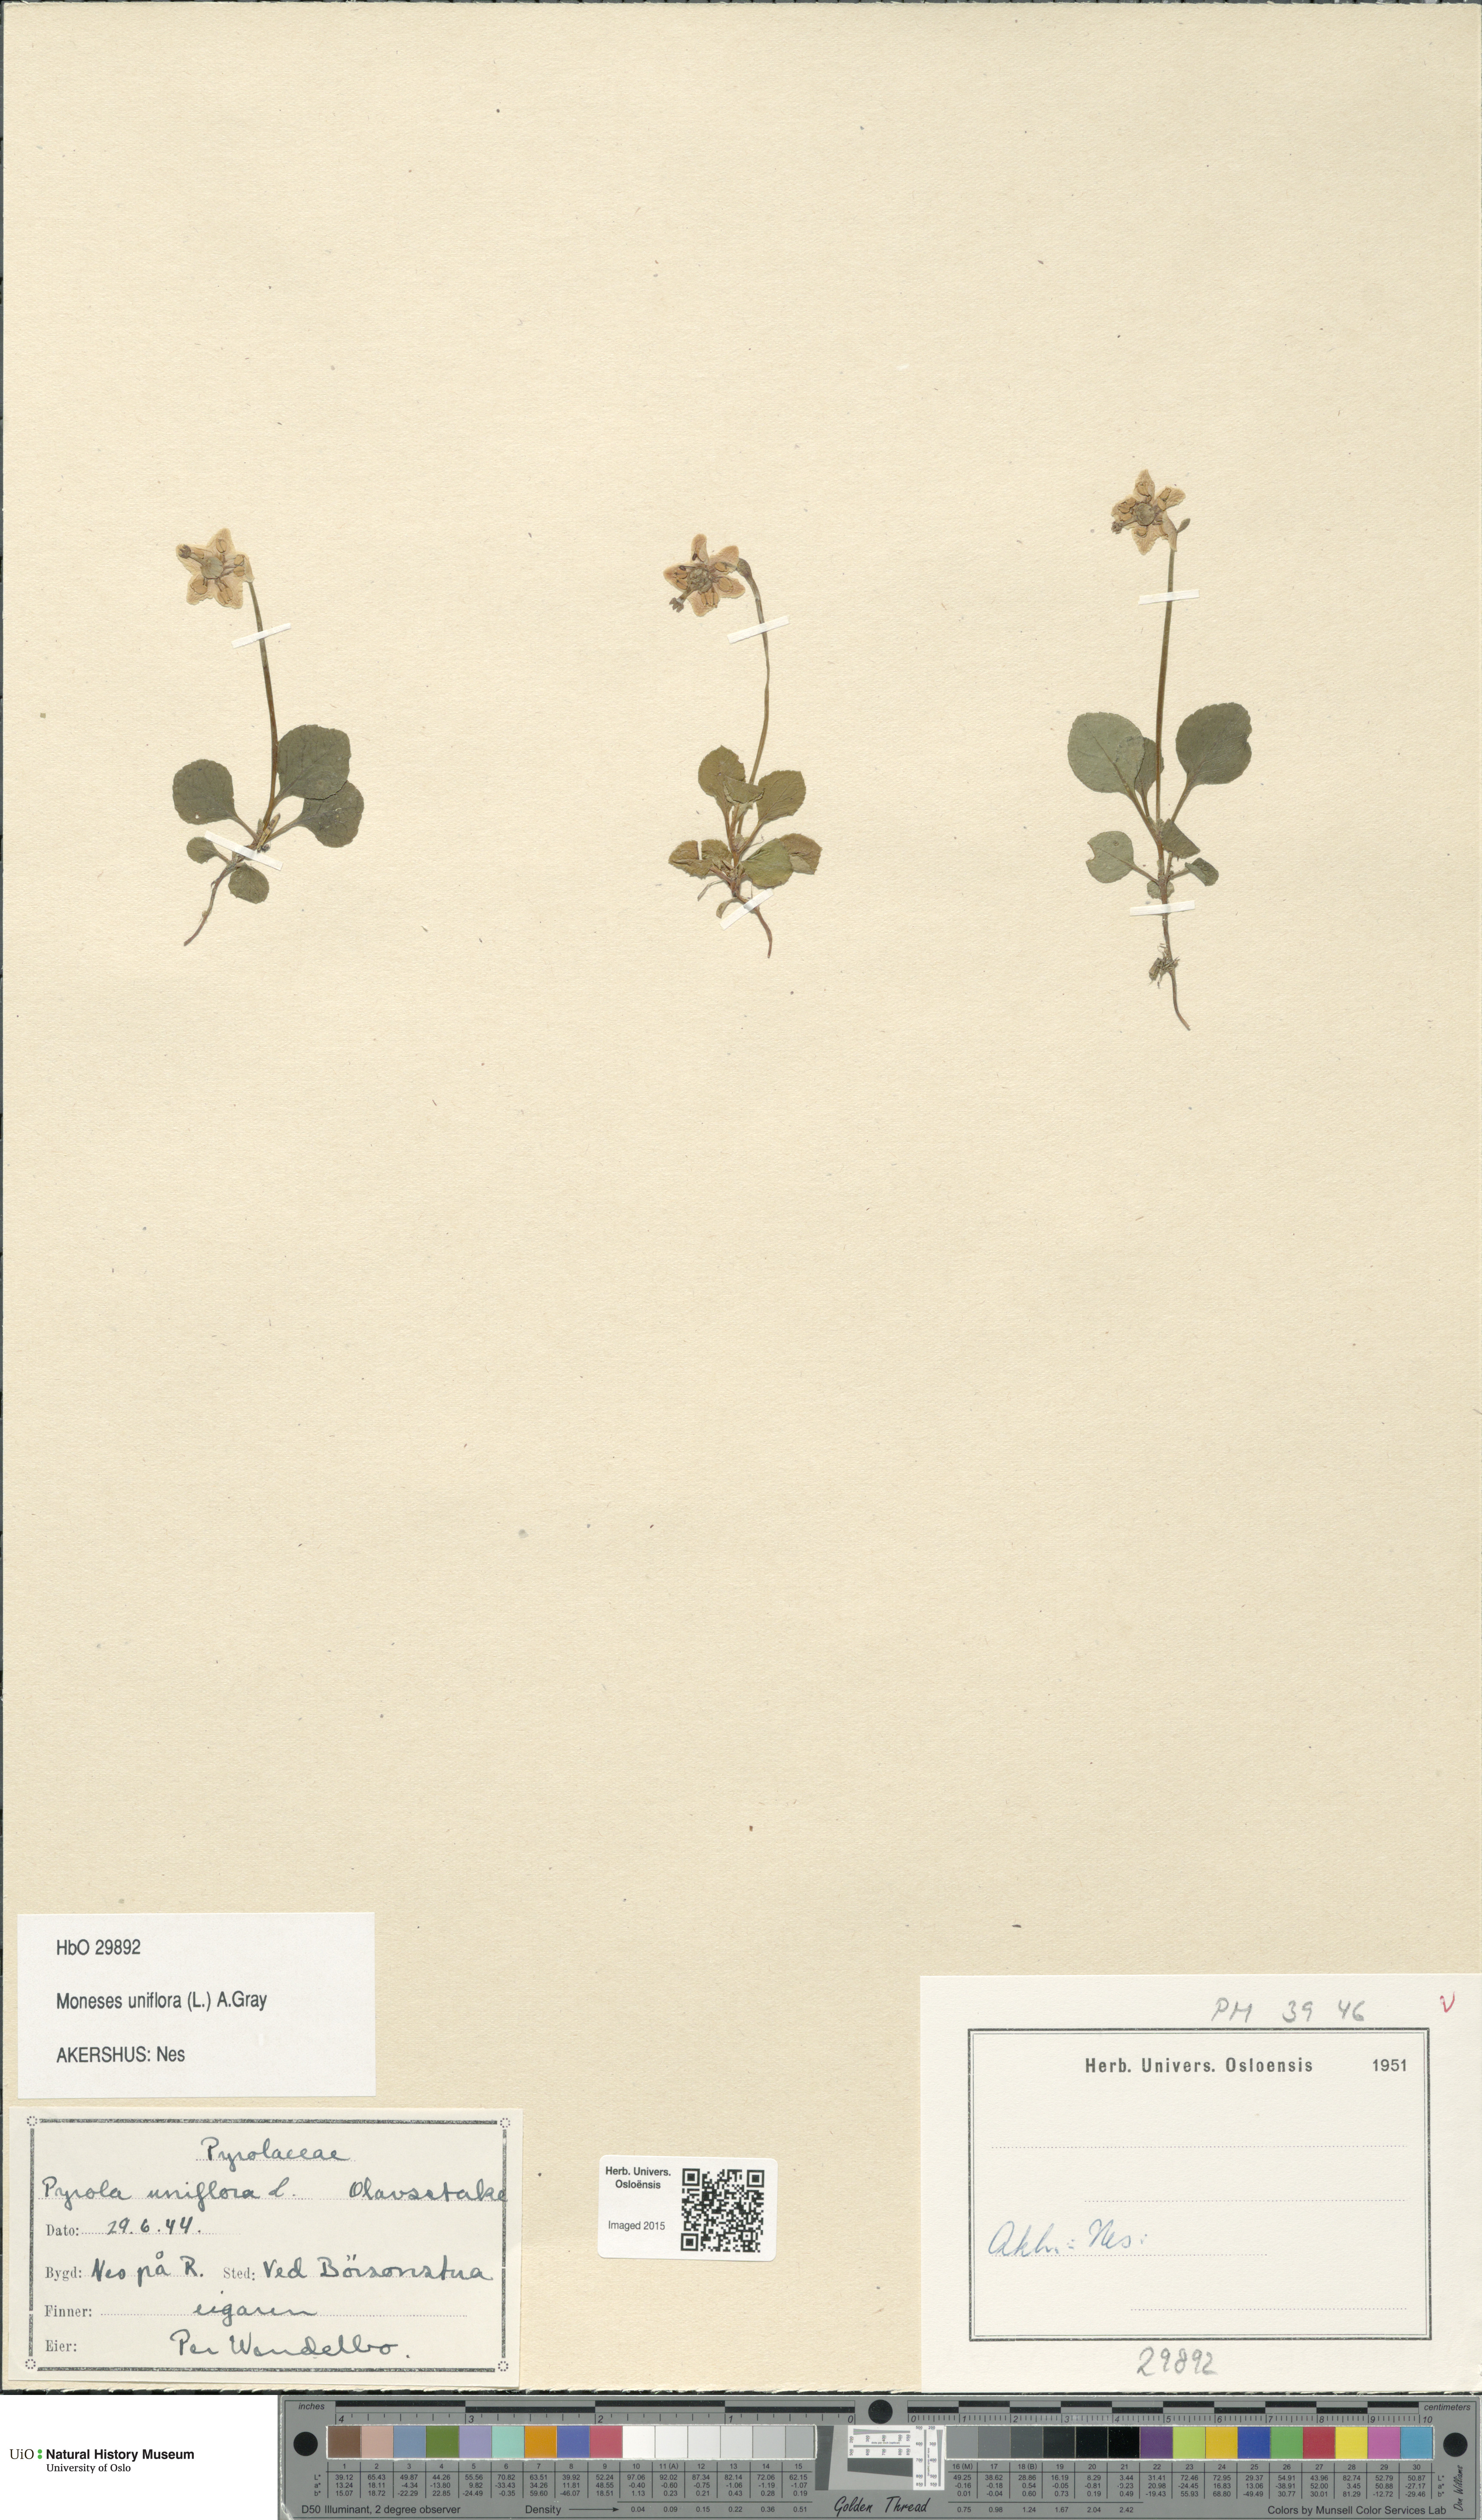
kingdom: Plantae
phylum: Tracheophyta
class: Magnoliopsida
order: Ericales
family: Ericaceae
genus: Moneses
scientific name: Moneses uniflora
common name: One-flowered wintergreen
